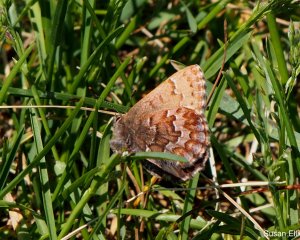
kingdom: Animalia
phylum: Arthropoda
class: Insecta
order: Lepidoptera
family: Lycaenidae
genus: Incisalia
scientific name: Incisalia niphon
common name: Eastern Pine Elfin
